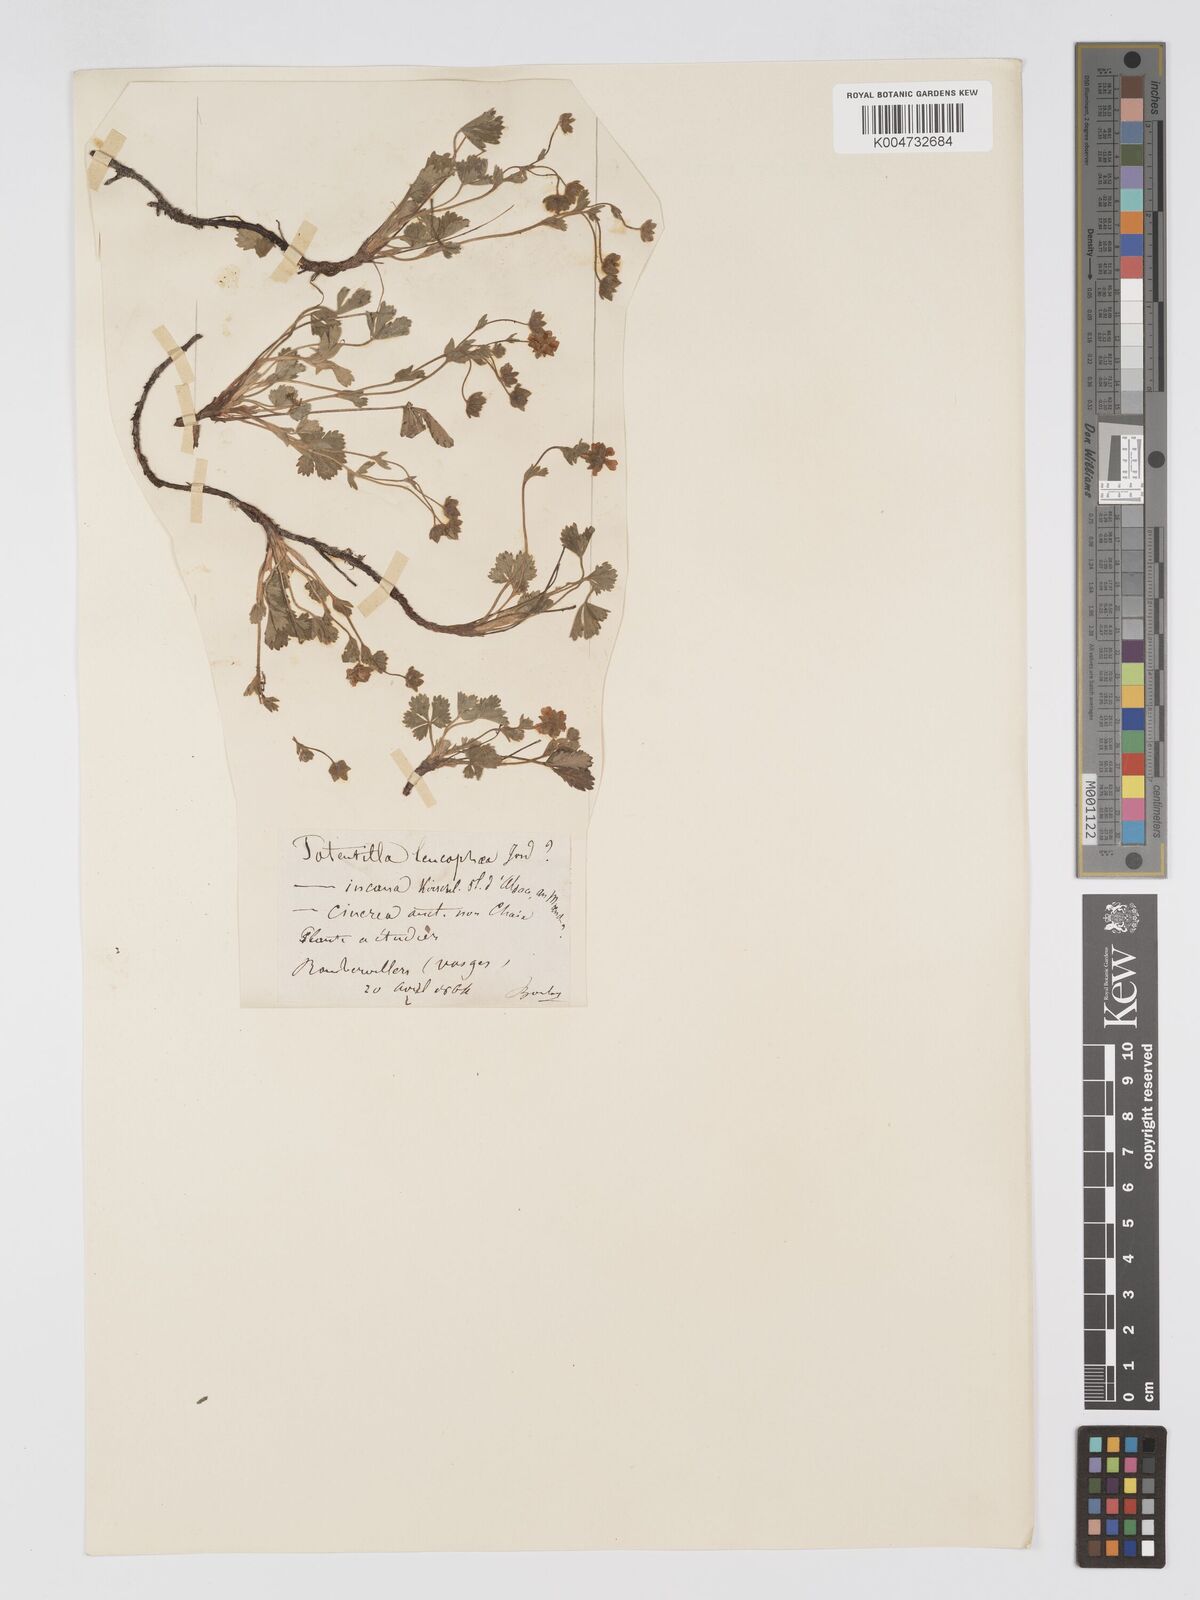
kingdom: Plantae
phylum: Tracheophyta
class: Magnoliopsida
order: Rosales
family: Rosaceae
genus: Potentilla
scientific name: Potentilla cinerea
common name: Ashy cinquefoil
